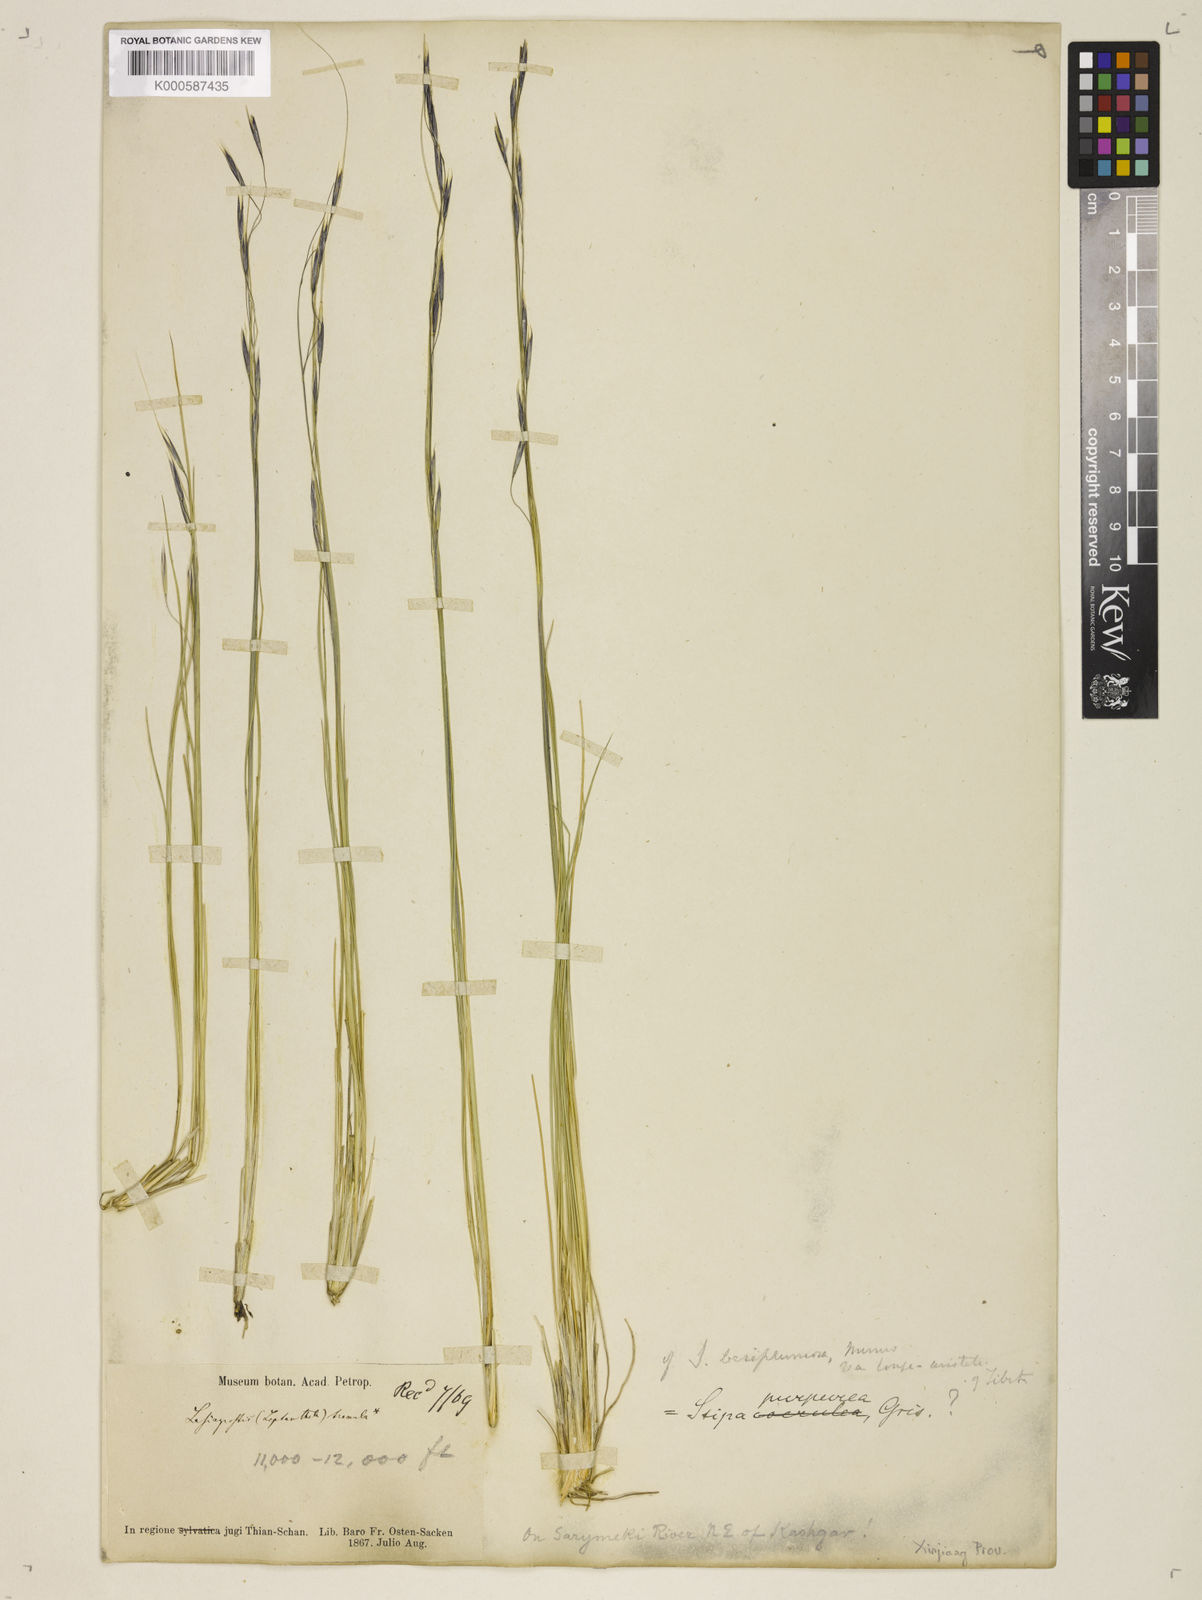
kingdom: Plantae
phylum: Tracheophyta
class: Liliopsida
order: Poales
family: Poaceae
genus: Stipa
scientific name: Stipa purpurea
